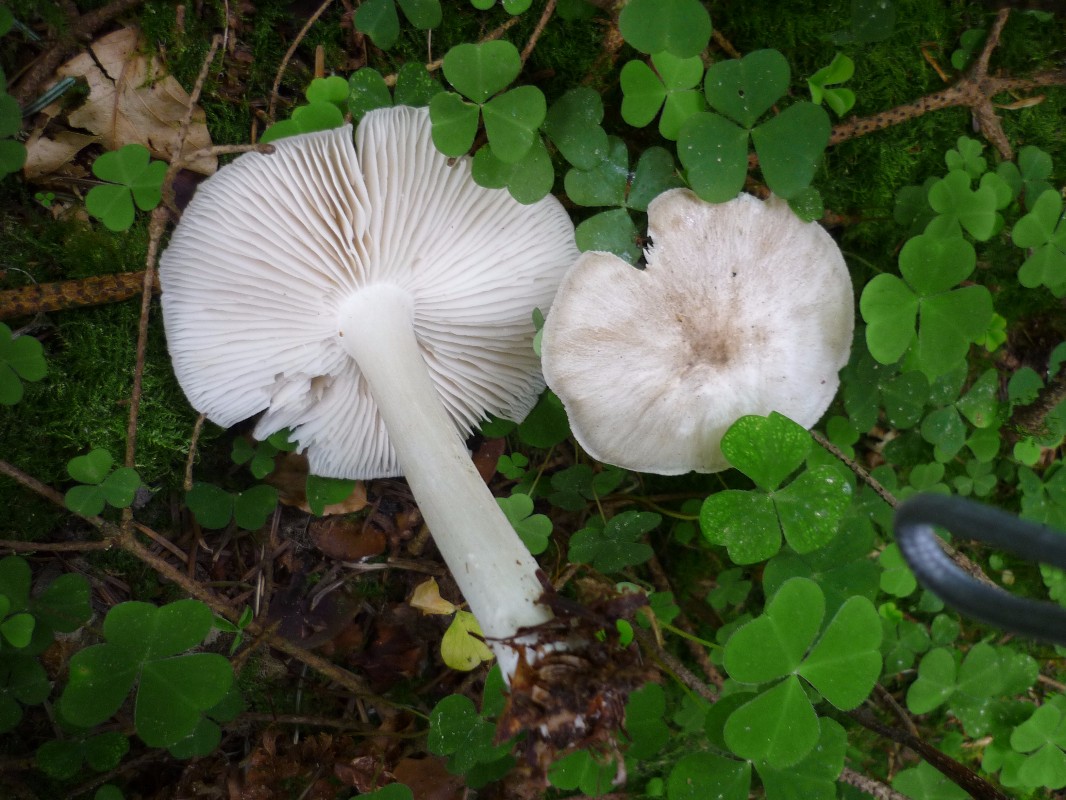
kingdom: Fungi
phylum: Basidiomycota
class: Agaricomycetes
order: Agaricales
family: Tricholomataceae
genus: Megacollybia
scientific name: Megacollybia platyphylla
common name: bredbladet væbnerhat
